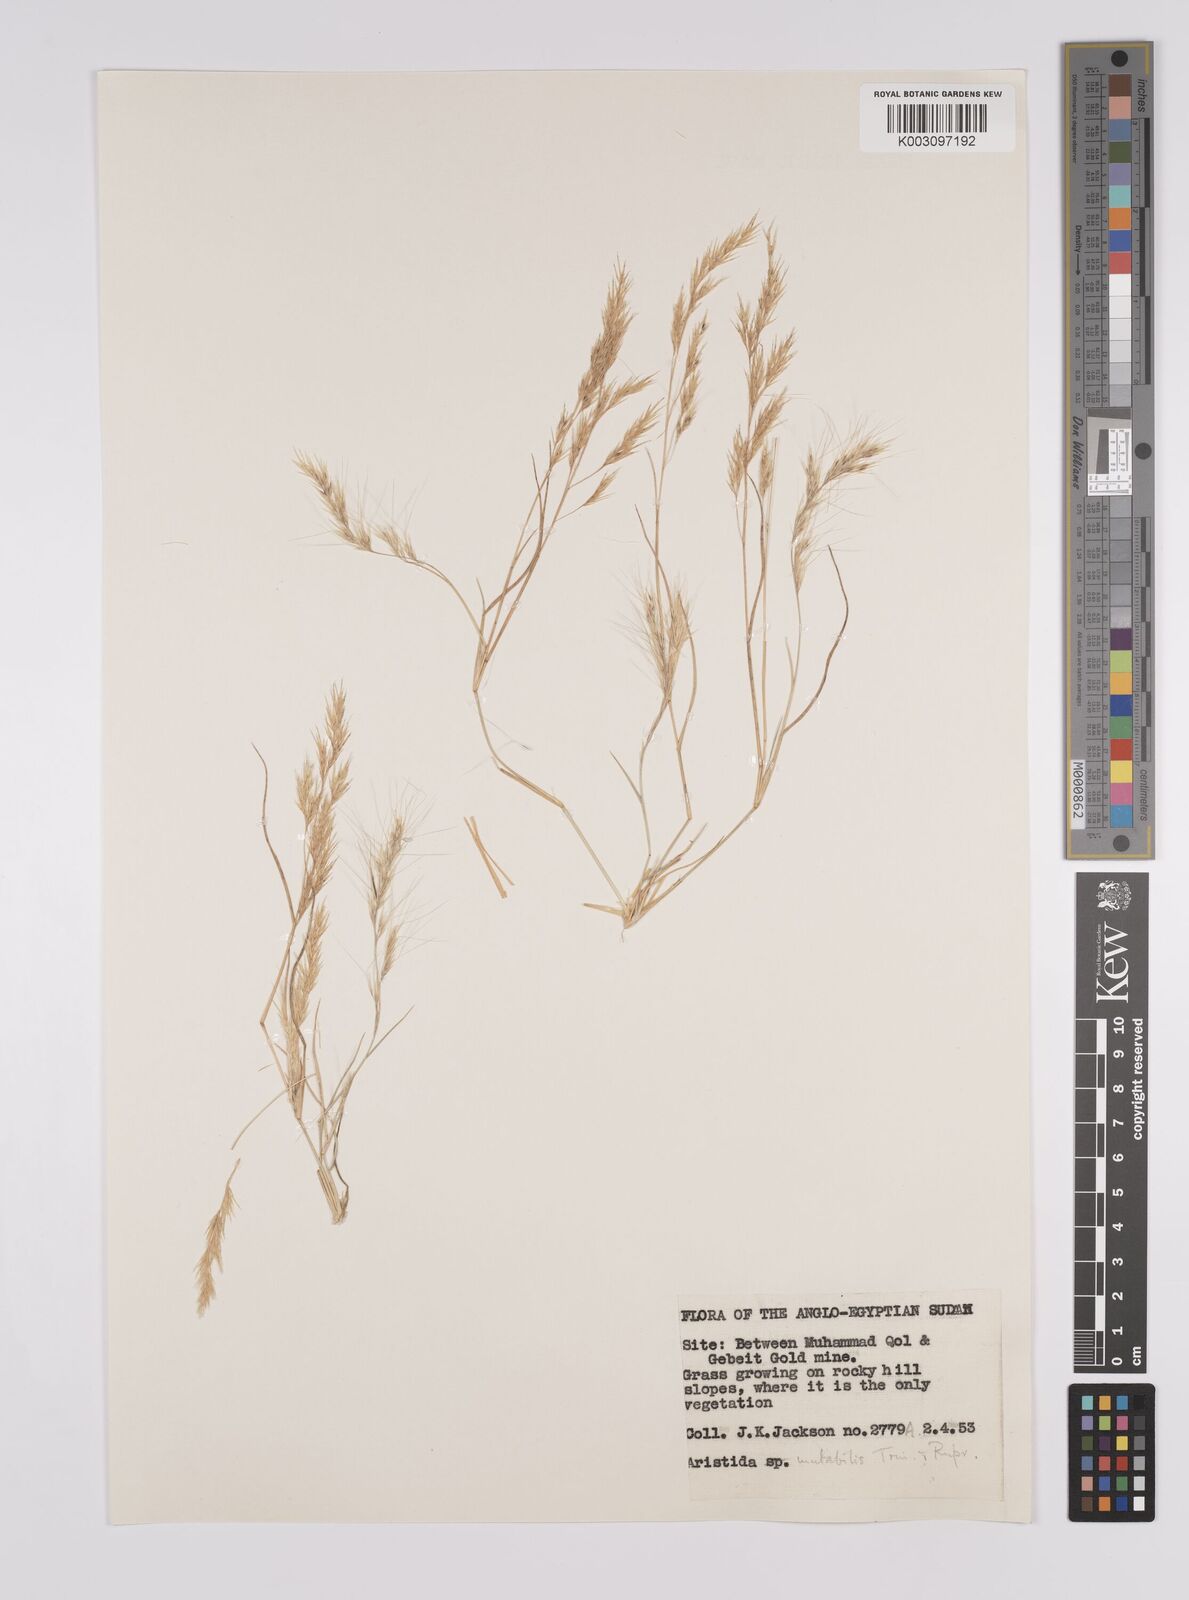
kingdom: Plantae
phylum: Tracheophyta
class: Liliopsida
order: Poales
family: Poaceae
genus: Aristida
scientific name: Aristida mutabilis
